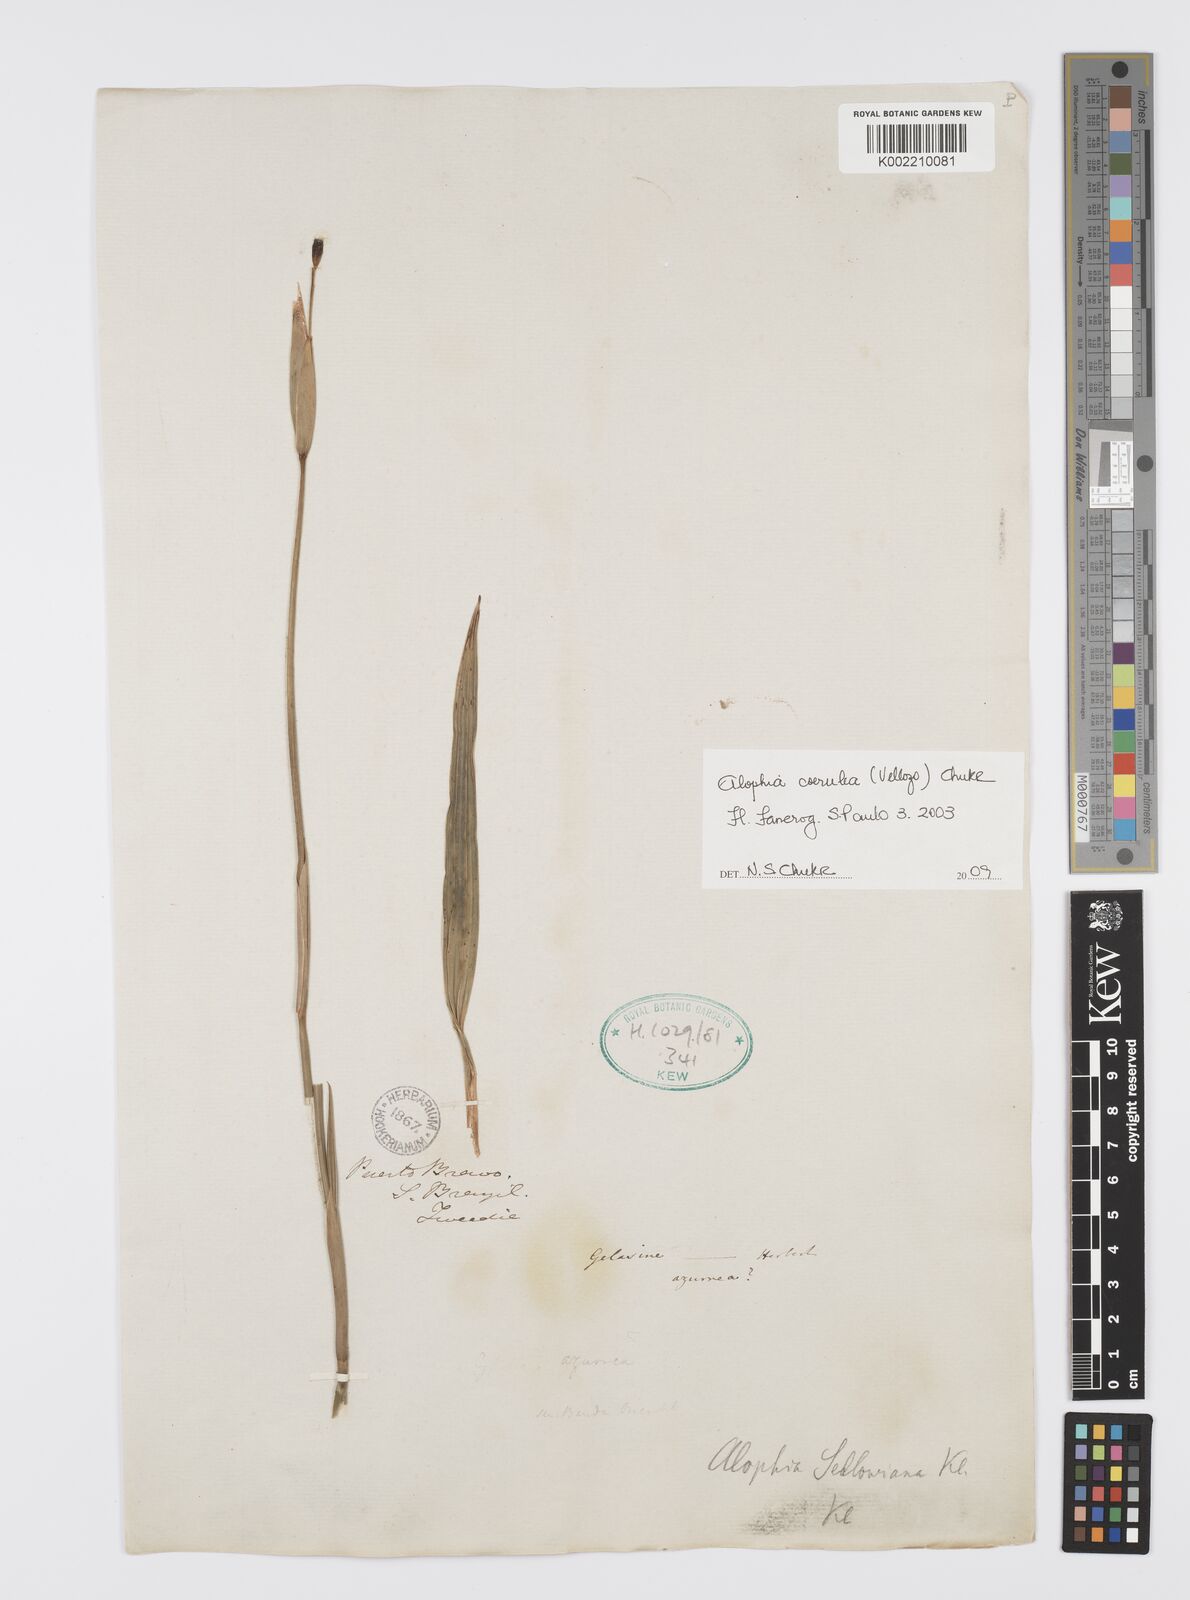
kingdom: Plantae
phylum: Tracheophyta
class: Liliopsida
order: Asparagales
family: Iridaceae
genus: Gelasine
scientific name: Gelasine coerulea
